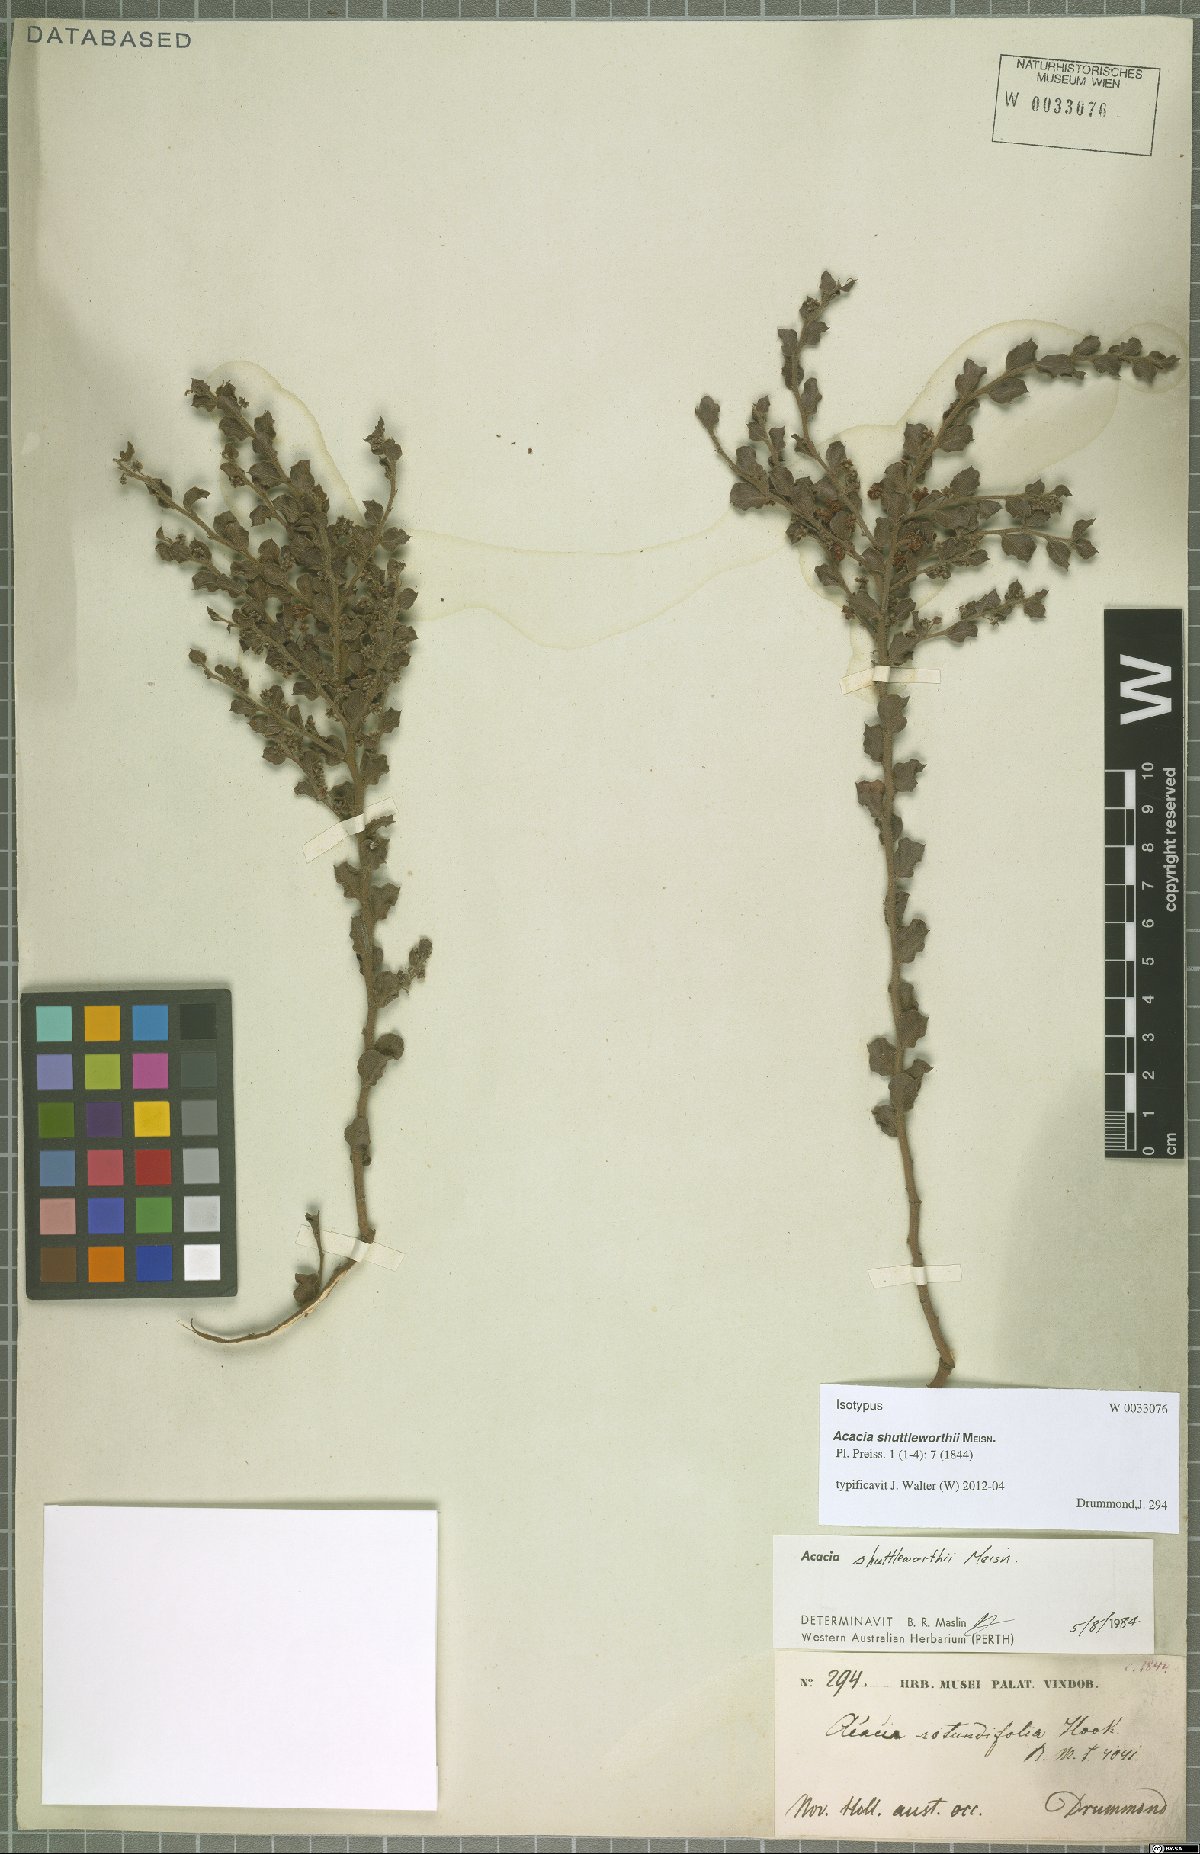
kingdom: Plantae
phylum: Tracheophyta
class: Magnoliopsida
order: Fabales
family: Fabaceae
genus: Acacia
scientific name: Acacia shuttleworthii
